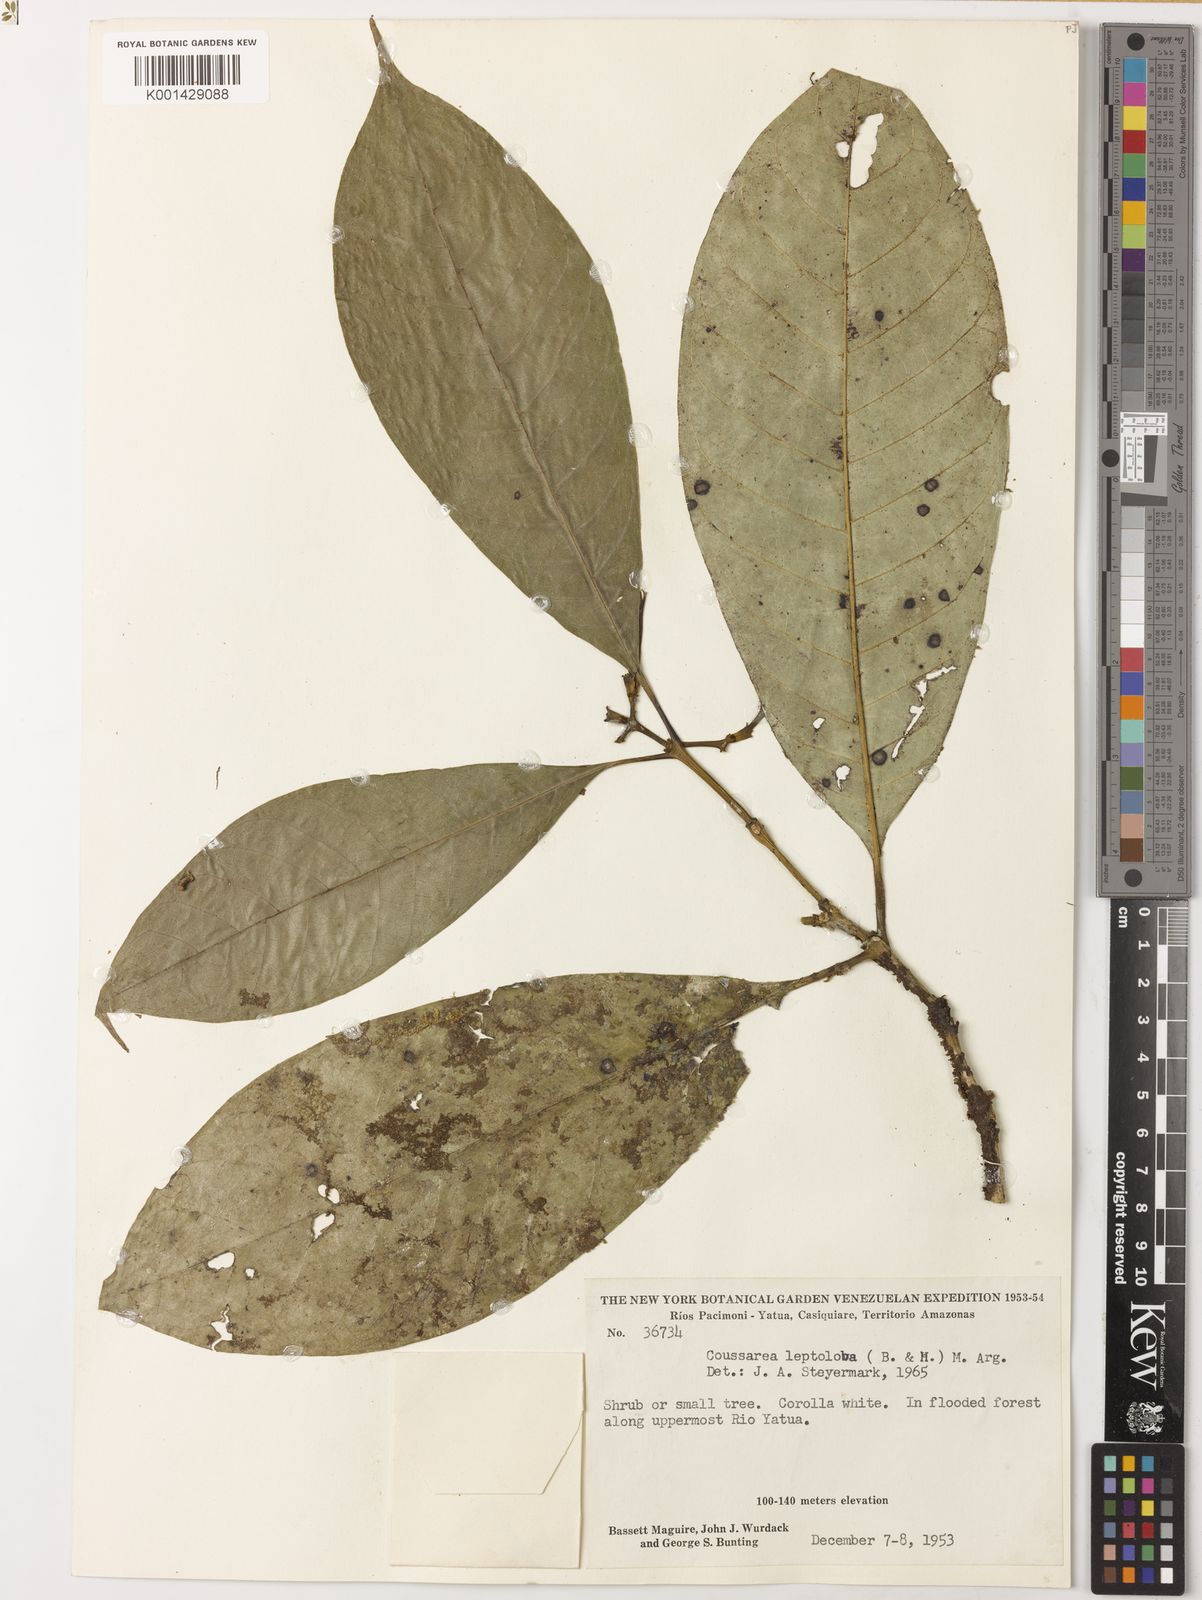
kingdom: Plantae
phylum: Tracheophyta
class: Magnoliopsida
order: Gentianales
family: Rubiaceae
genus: Coussarea
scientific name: Coussarea
